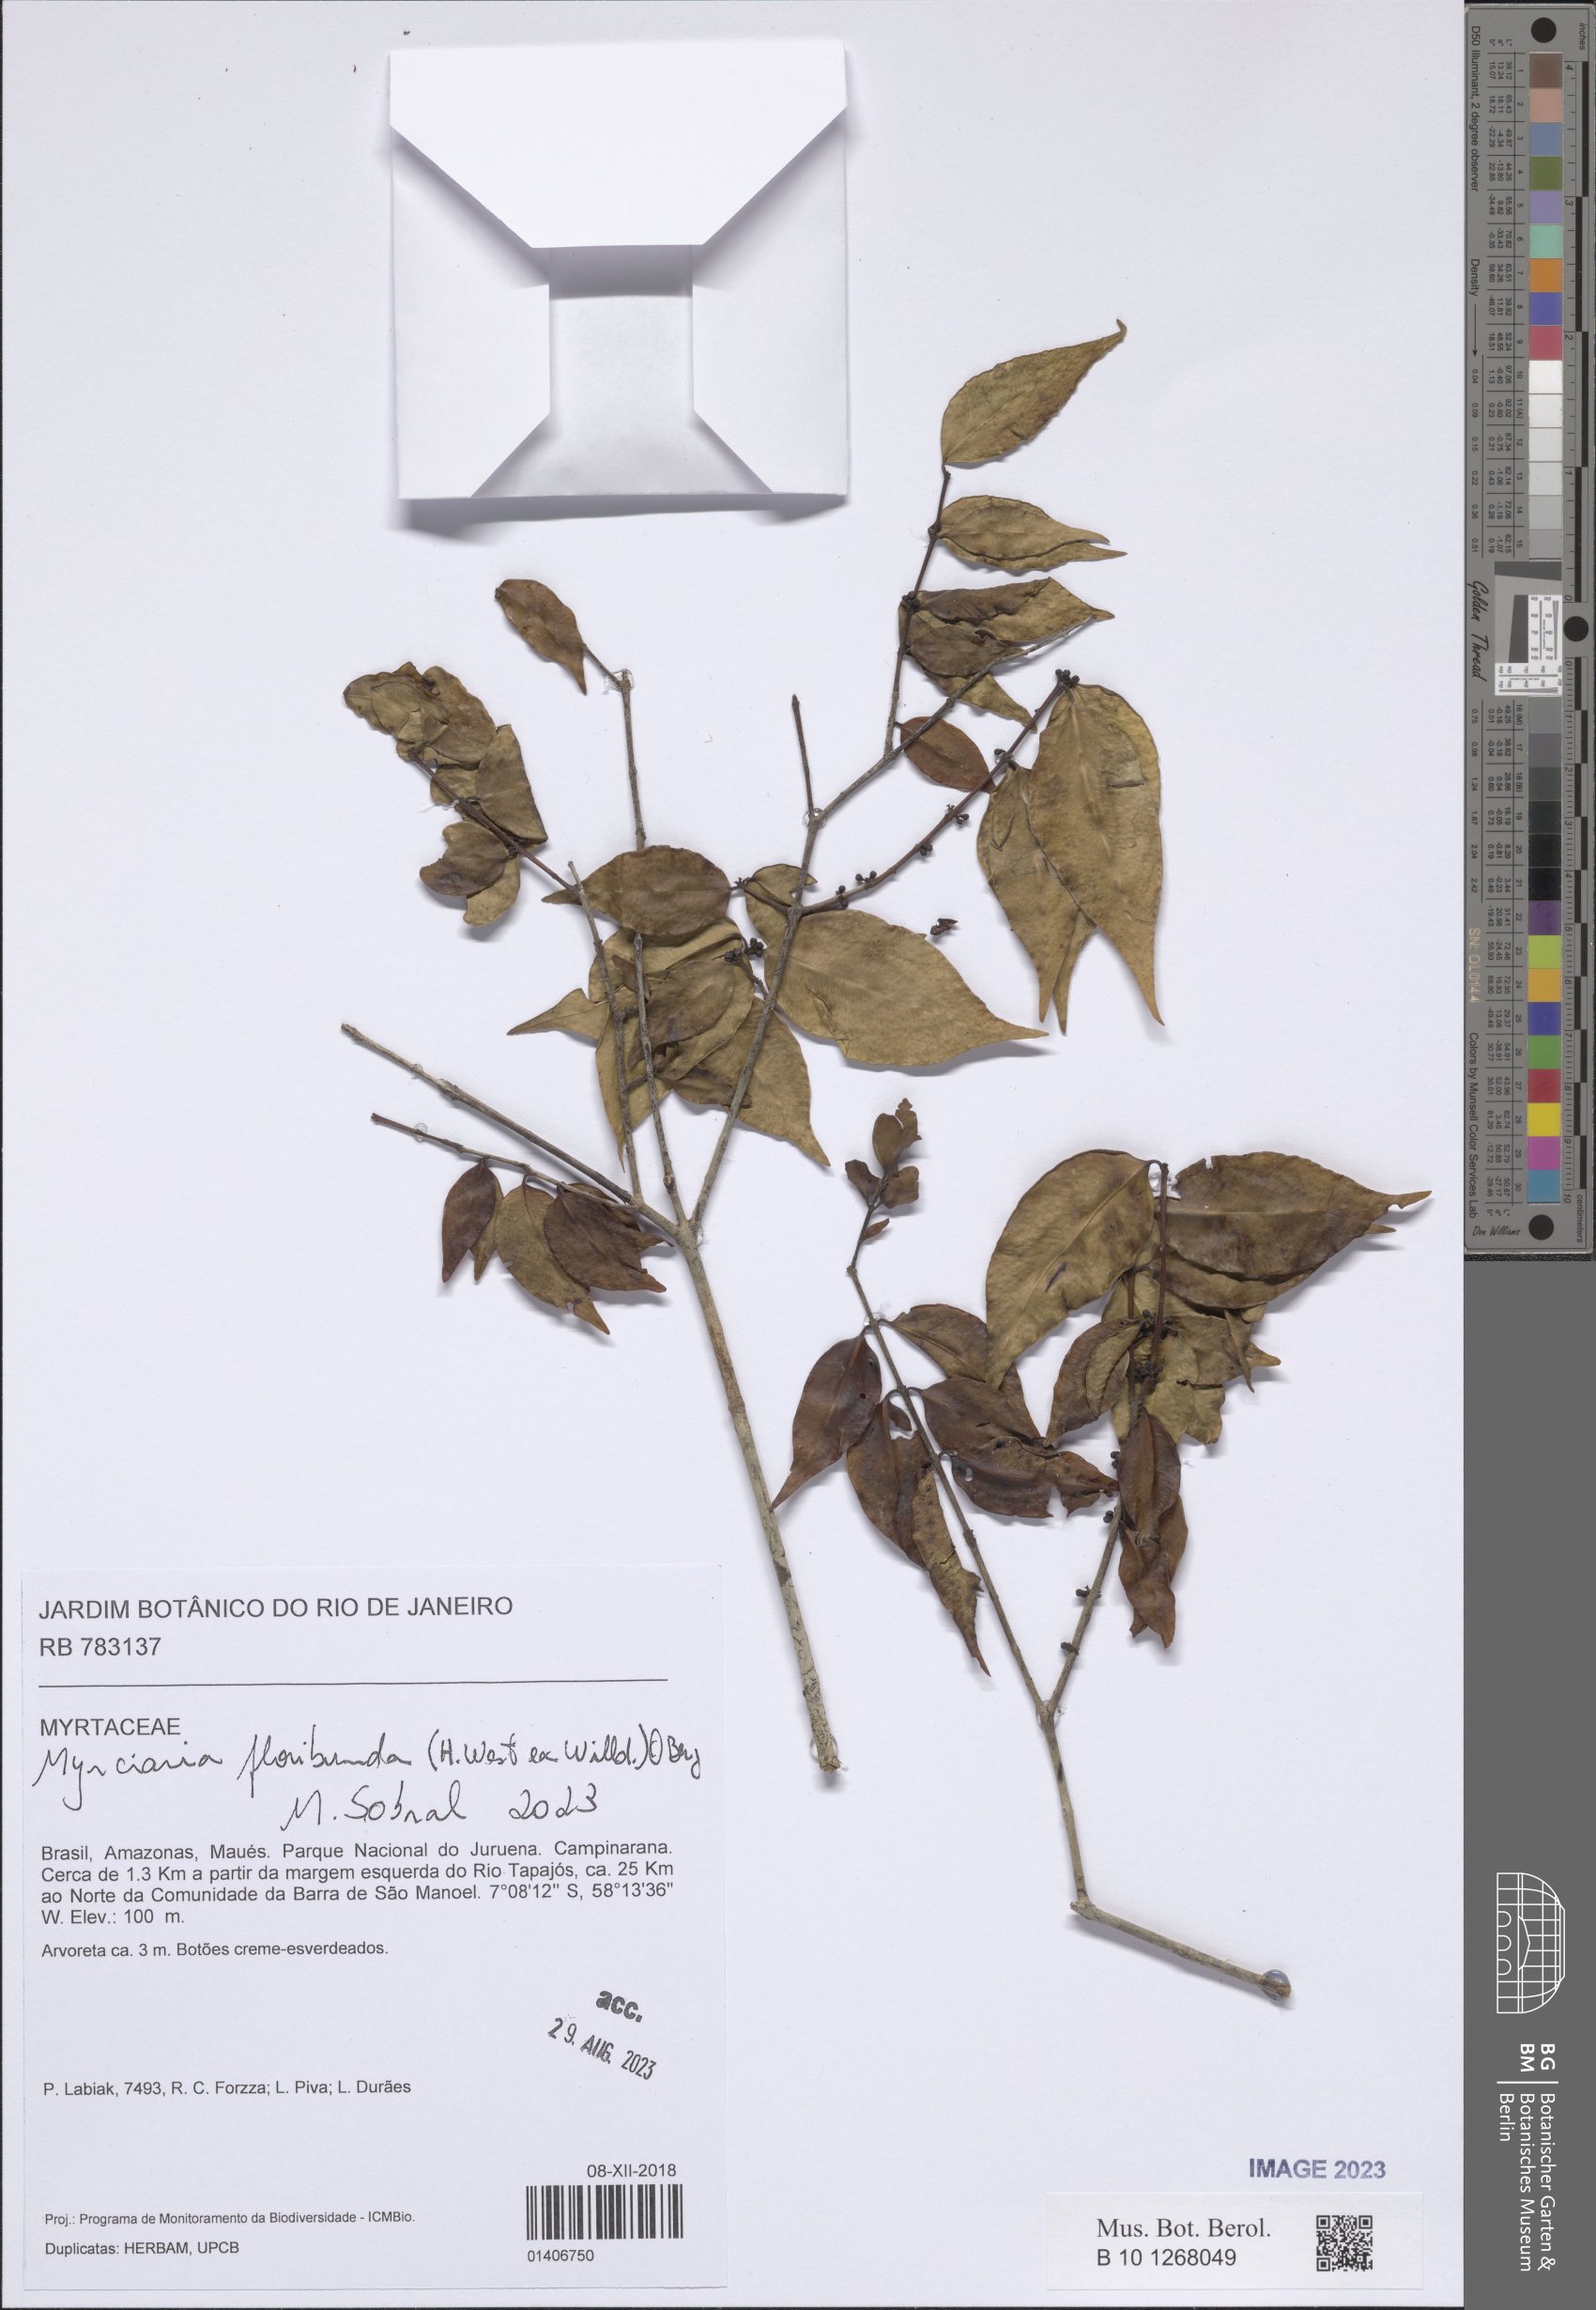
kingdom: Plantae
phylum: Tracheophyta
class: Magnoliopsida
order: Myrtales
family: Myrtaceae
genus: Myrciaria
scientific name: Myrciaria floribunda
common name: Guavaberry
